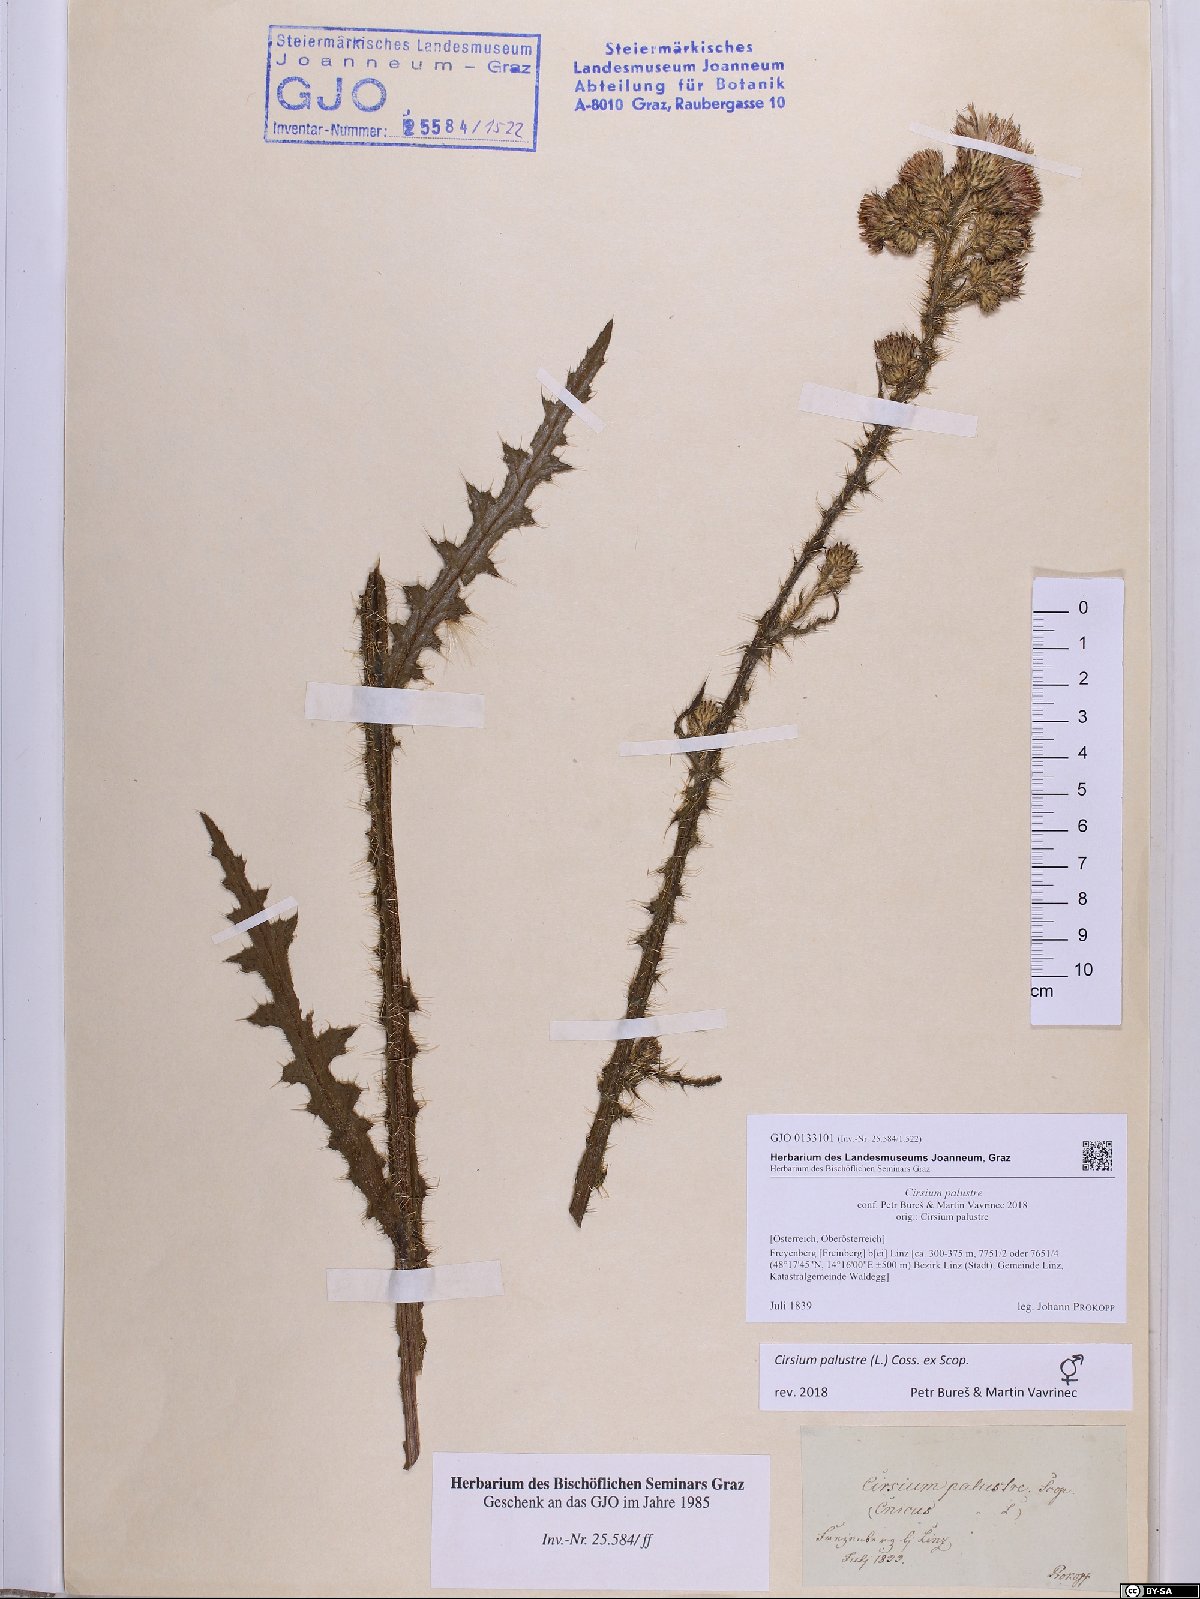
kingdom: Plantae
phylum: Tracheophyta
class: Magnoliopsida
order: Asterales
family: Asteraceae
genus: Cirsium
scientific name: Cirsium palustre
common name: Marsh thistle
